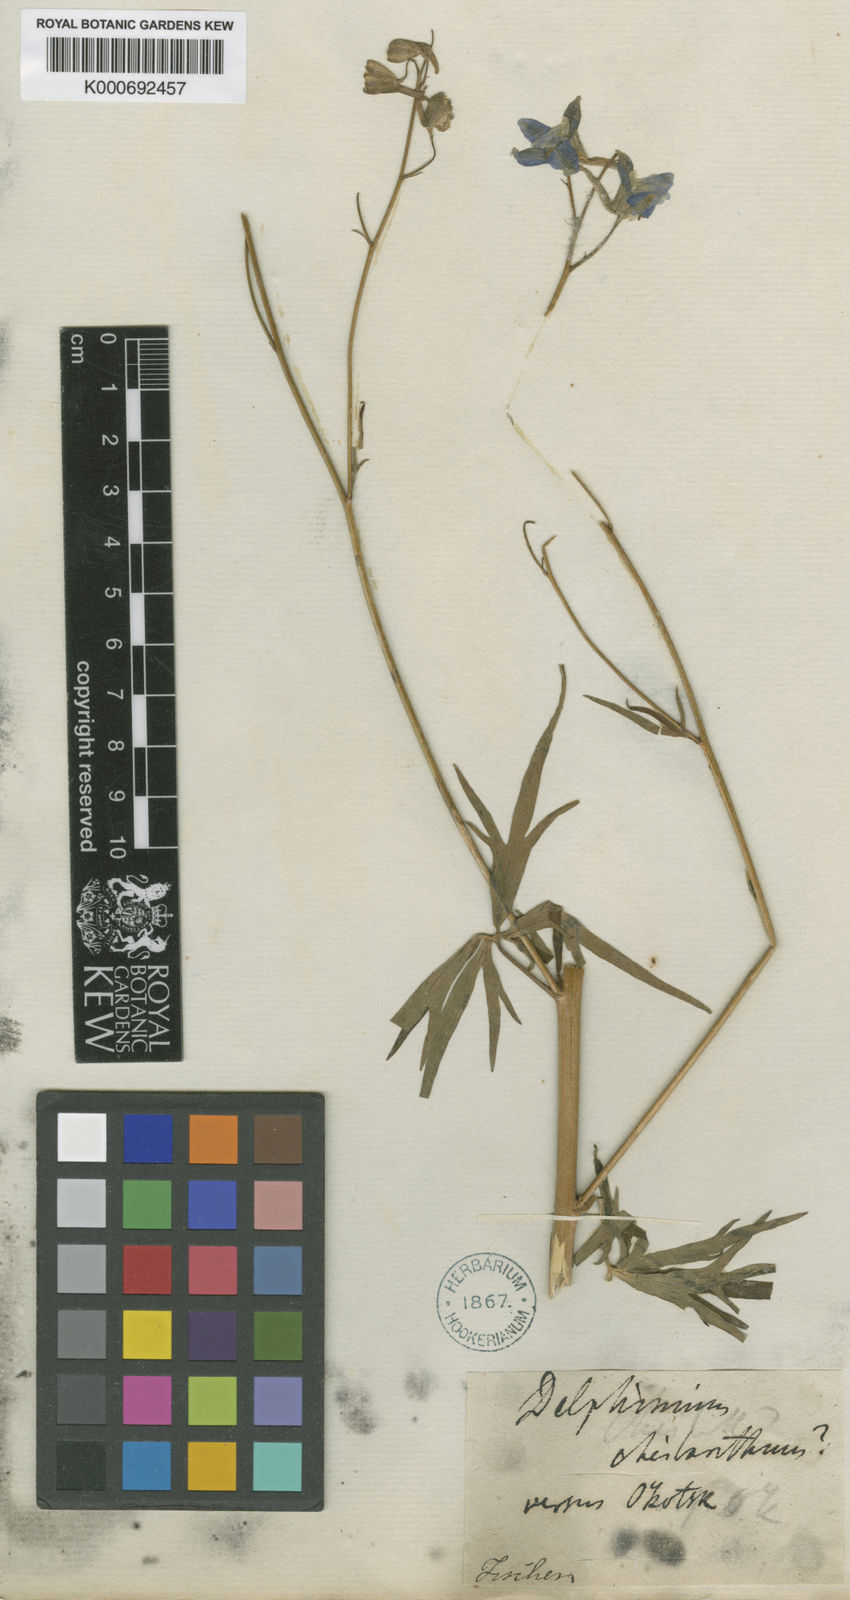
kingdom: Plantae
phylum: Tracheophyta
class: Magnoliopsida
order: Ranunculales
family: Ranunculaceae
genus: Delphinium
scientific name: Delphinium cheilanthum
